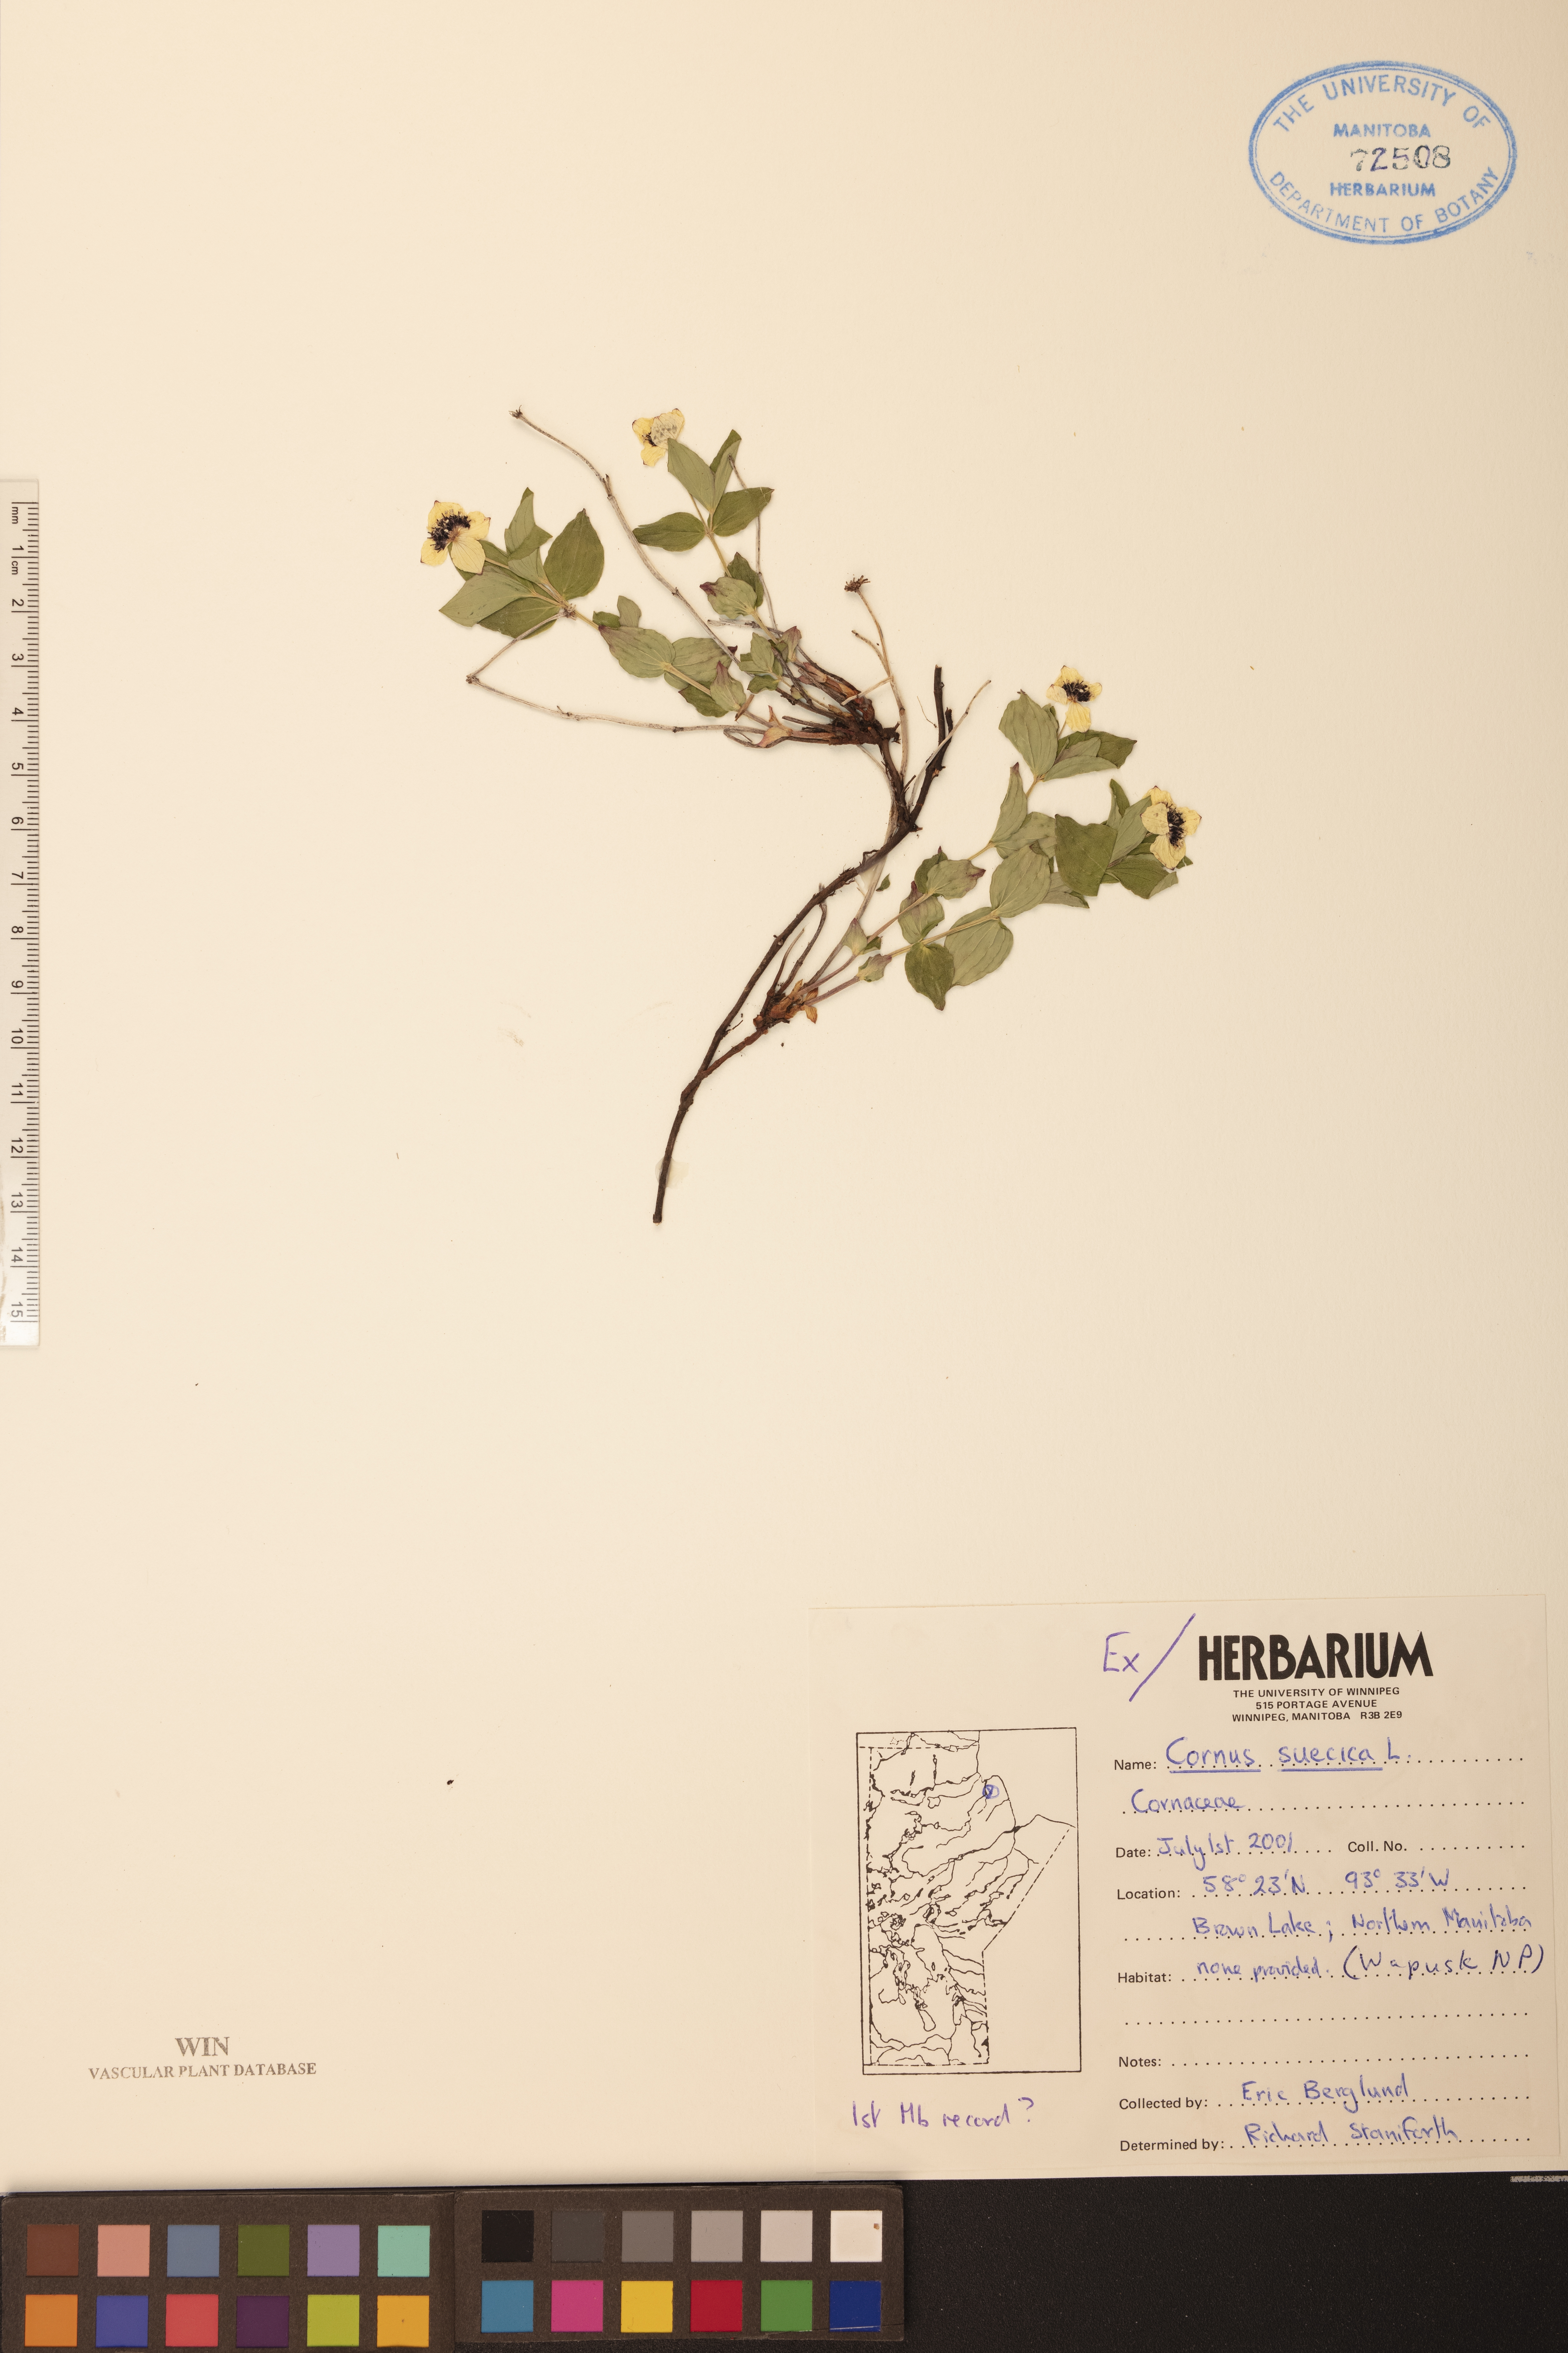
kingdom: Plantae
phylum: Tracheophyta
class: Magnoliopsida
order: Cornales
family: Cornaceae
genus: Cornus
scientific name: Cornus suecica
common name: Dwarf cornel
